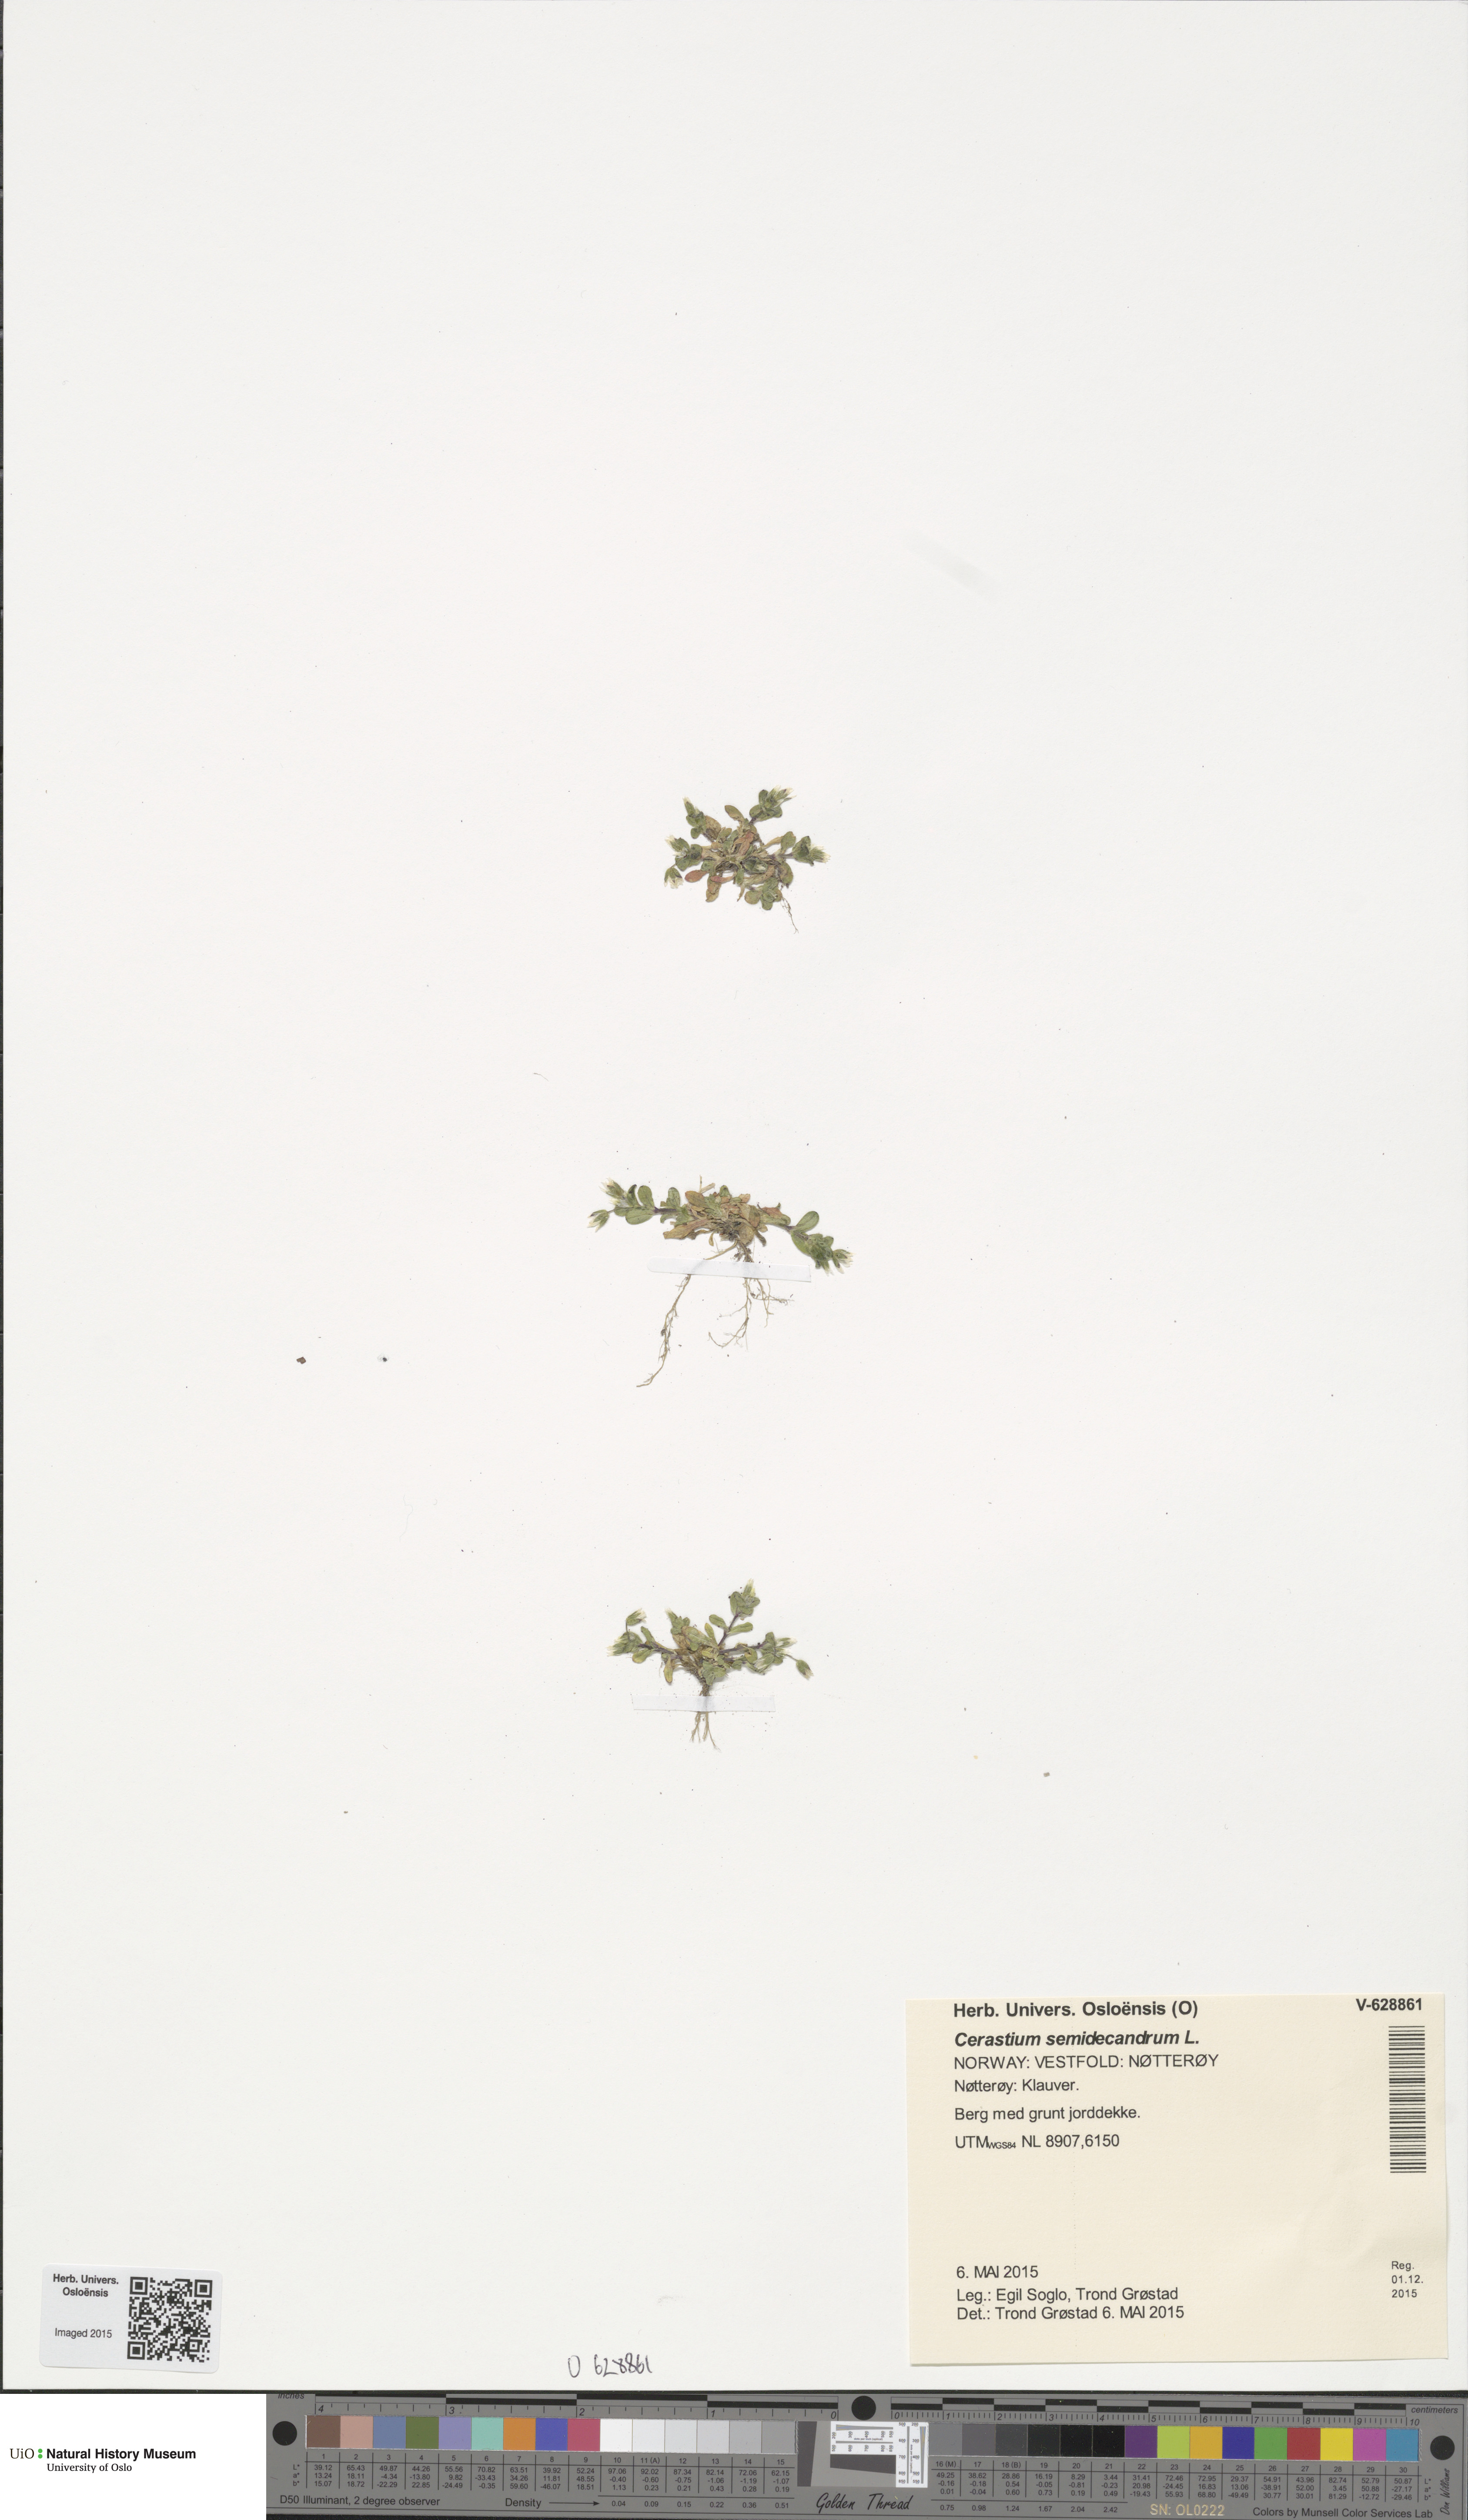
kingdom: Plantae
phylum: Tracheophyta
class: Magnoliopsida
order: Caryophyllales
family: Caryophyllaceae
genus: Cerastium
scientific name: Cerastium semidecandrum
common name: Little mouse-ear
